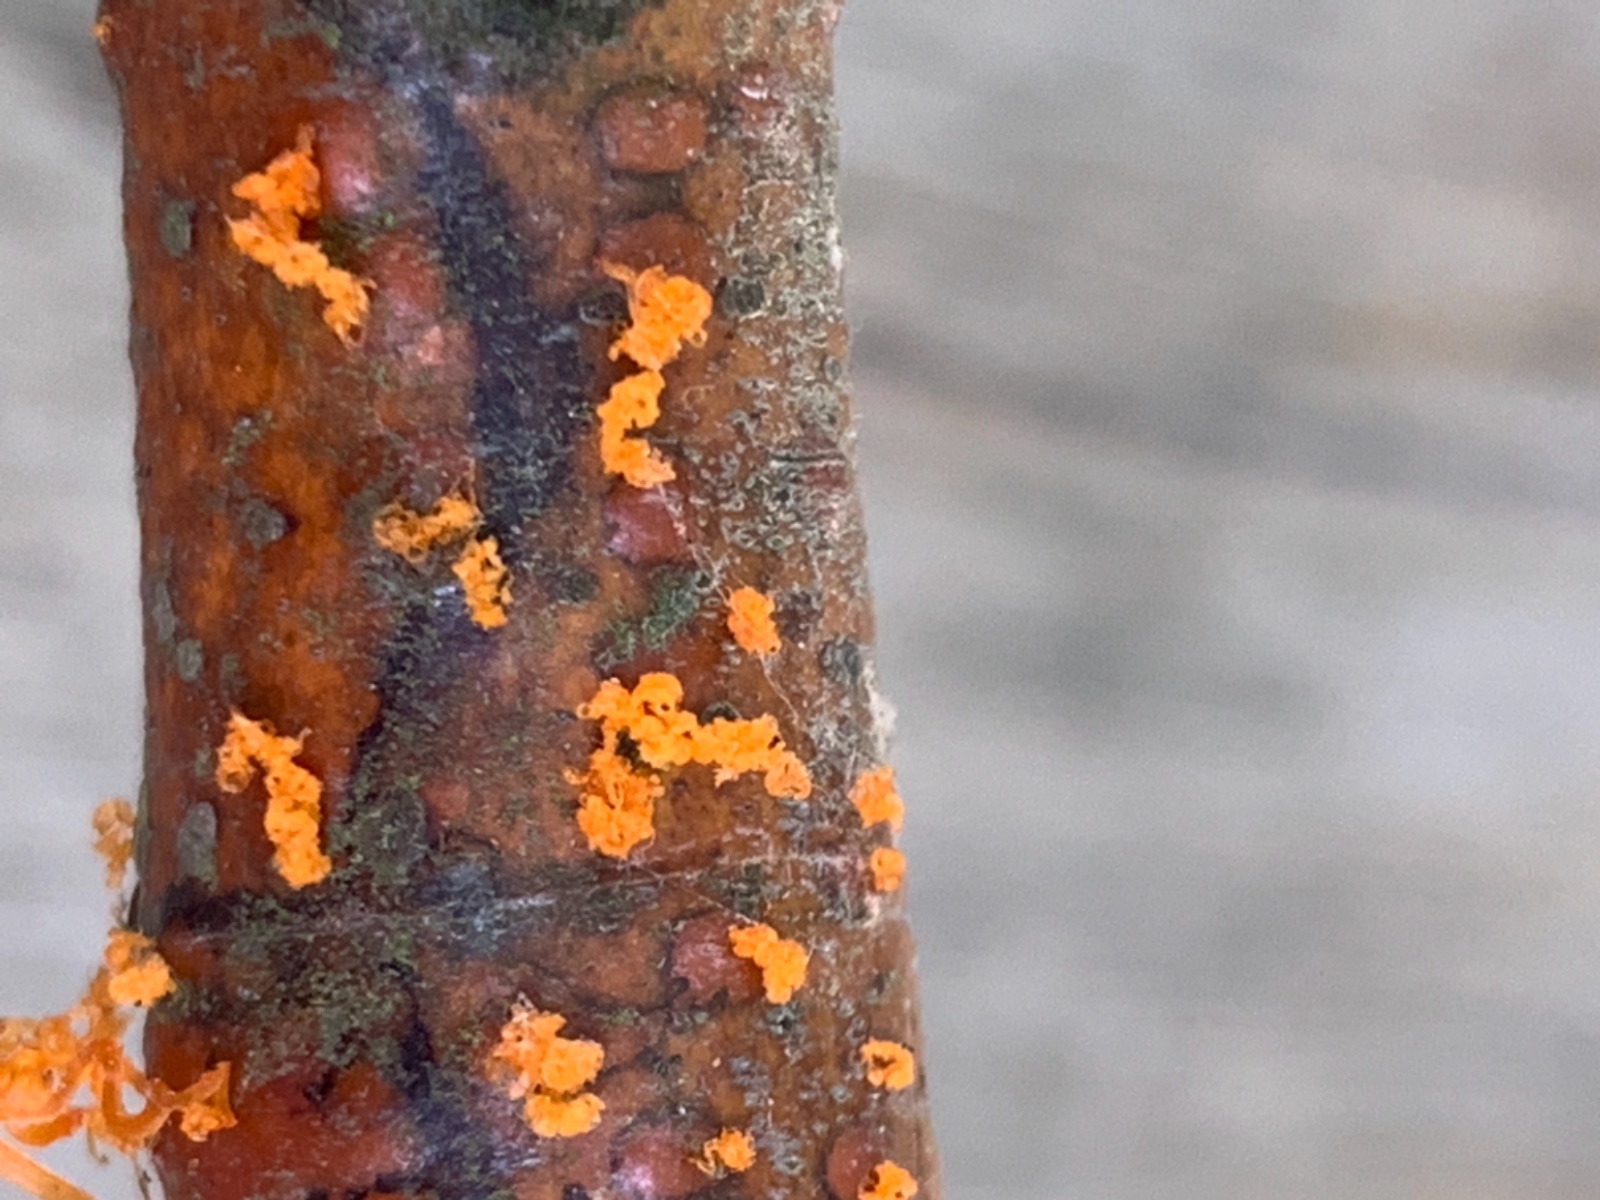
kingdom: Fungi
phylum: Ascomycota
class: Sordariomycetes
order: Xylariales
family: Diatrypaceae
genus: Eutypella
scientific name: Eutypella quaternata
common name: bøge-korsprik
